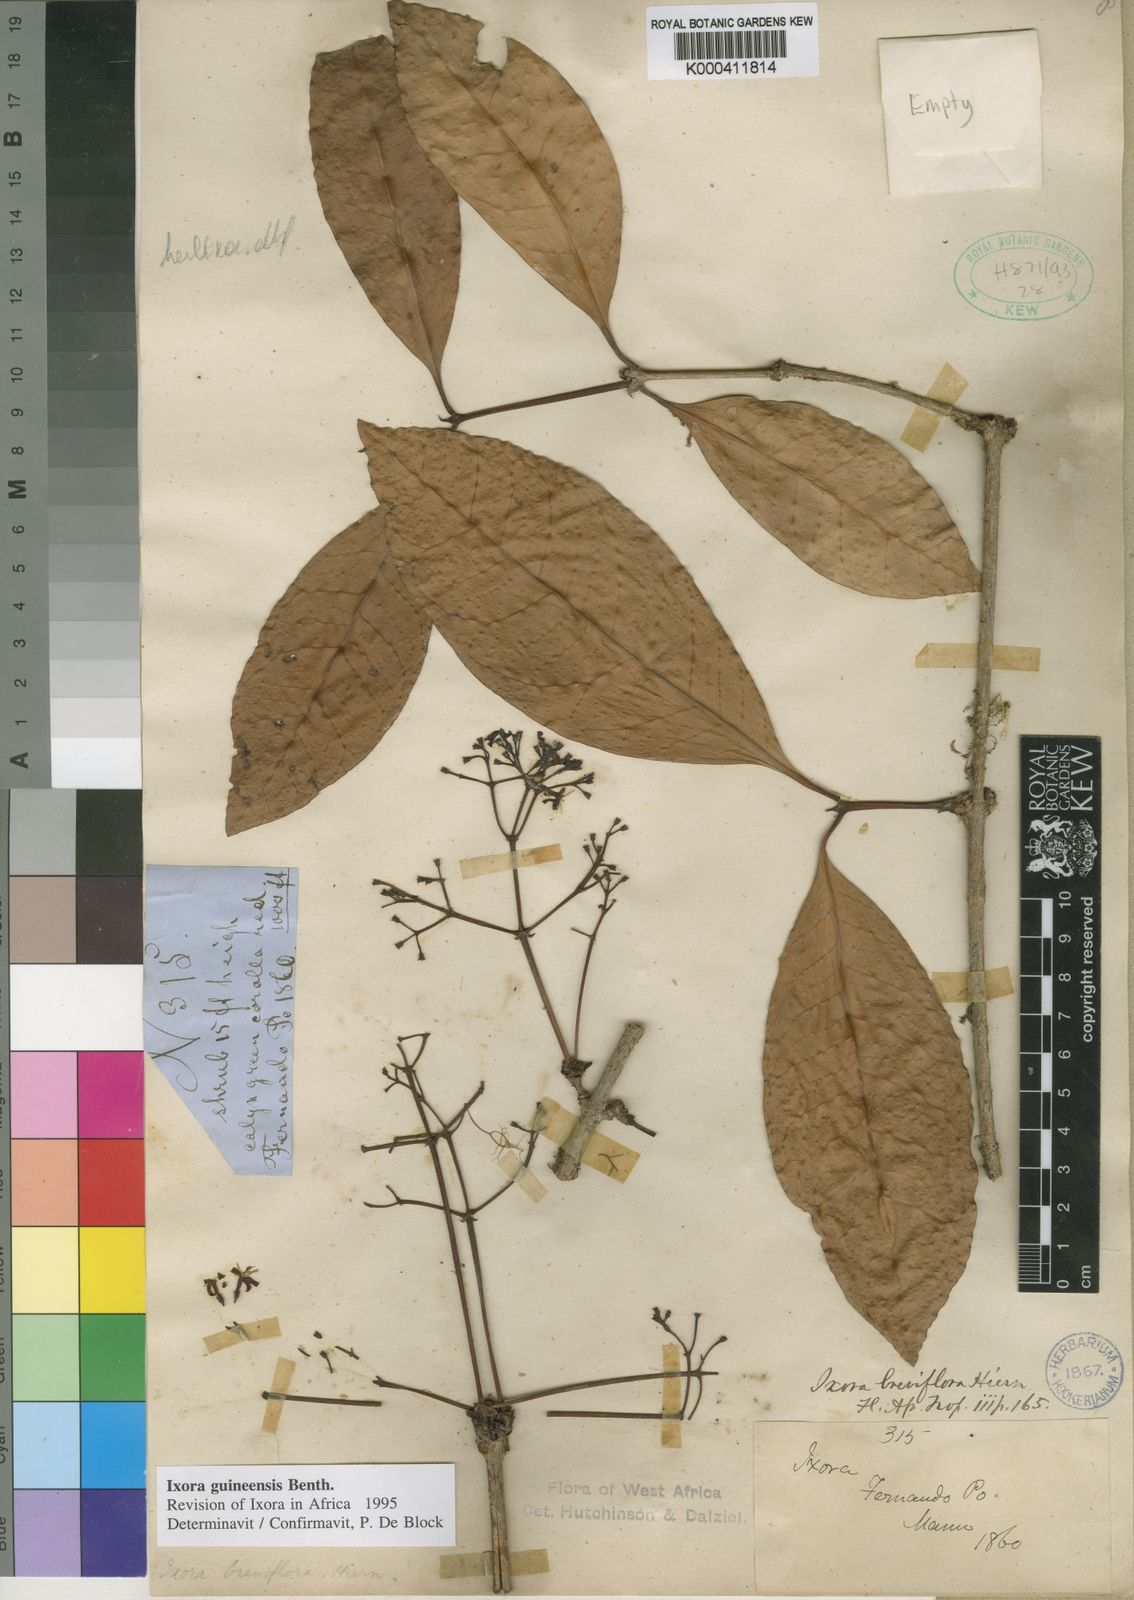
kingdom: Plantae
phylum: Tracheophyta
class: Magnoliopsida
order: Gentianales
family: Rubiaceae
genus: Ixora
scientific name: Ixora guineensis
